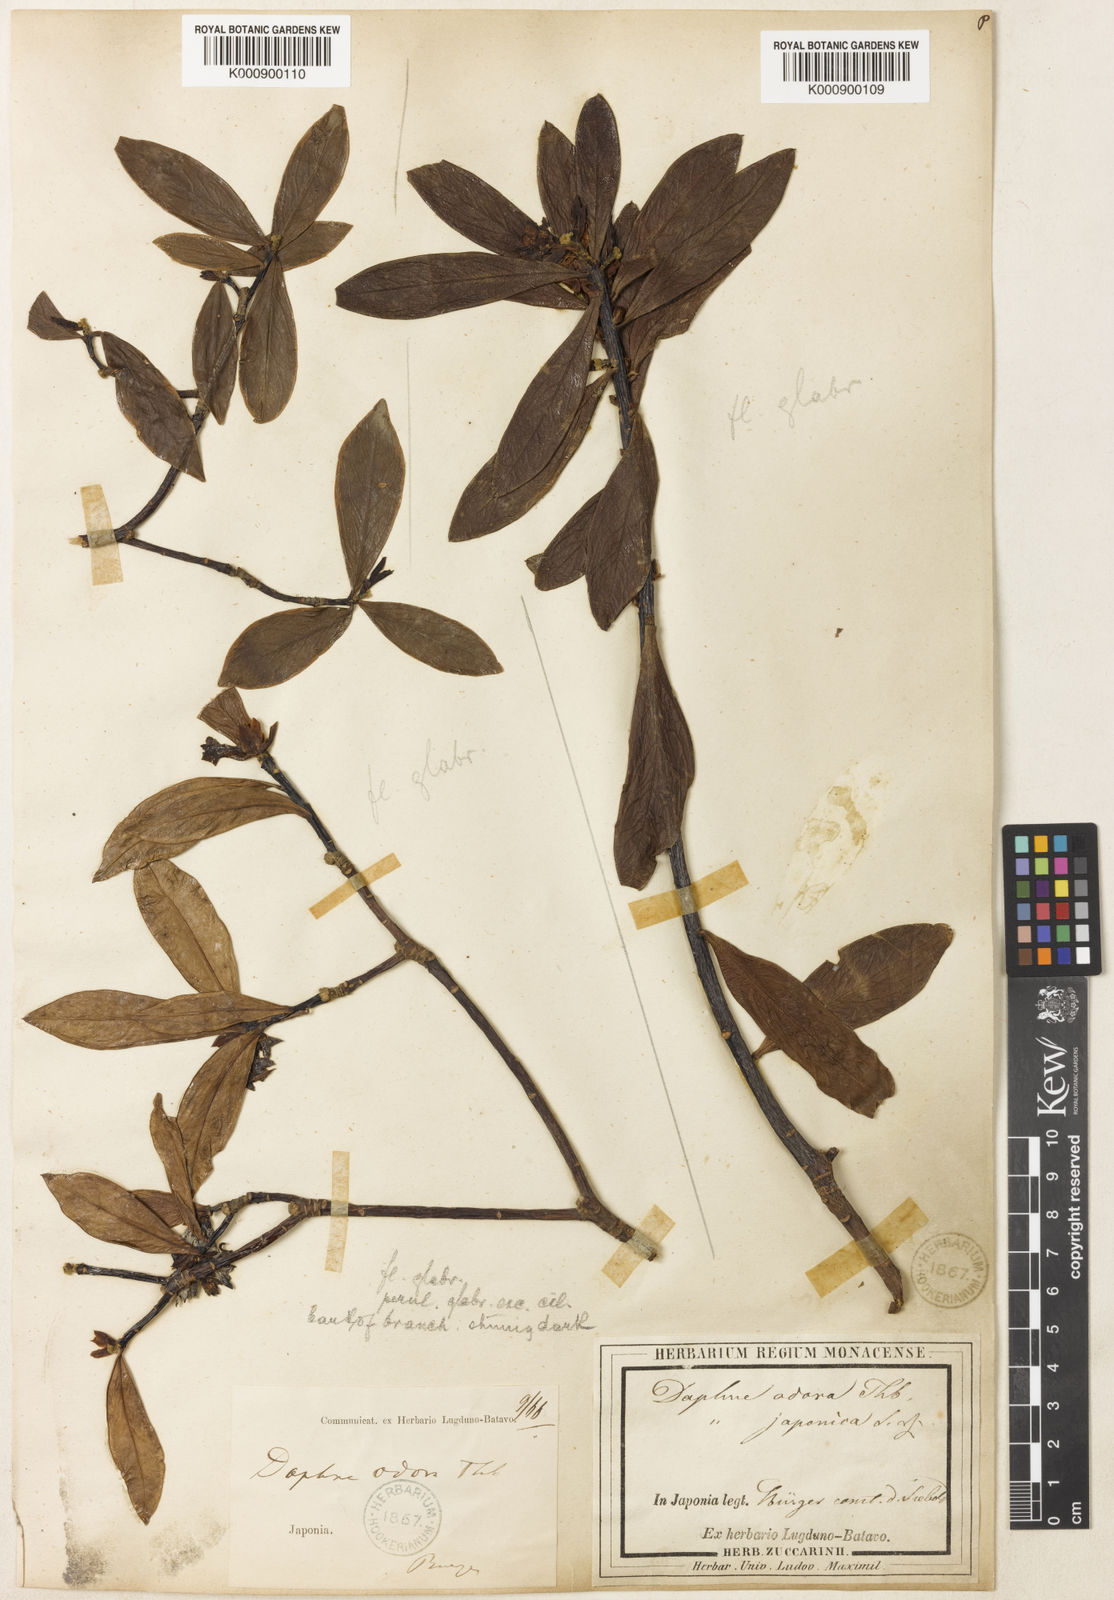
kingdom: Plantae
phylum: Tracheophyta
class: Magnoliopsida
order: Malvales
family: Thymelaeaceae
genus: Daphne
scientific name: Daphne odora
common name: Winter daphne
